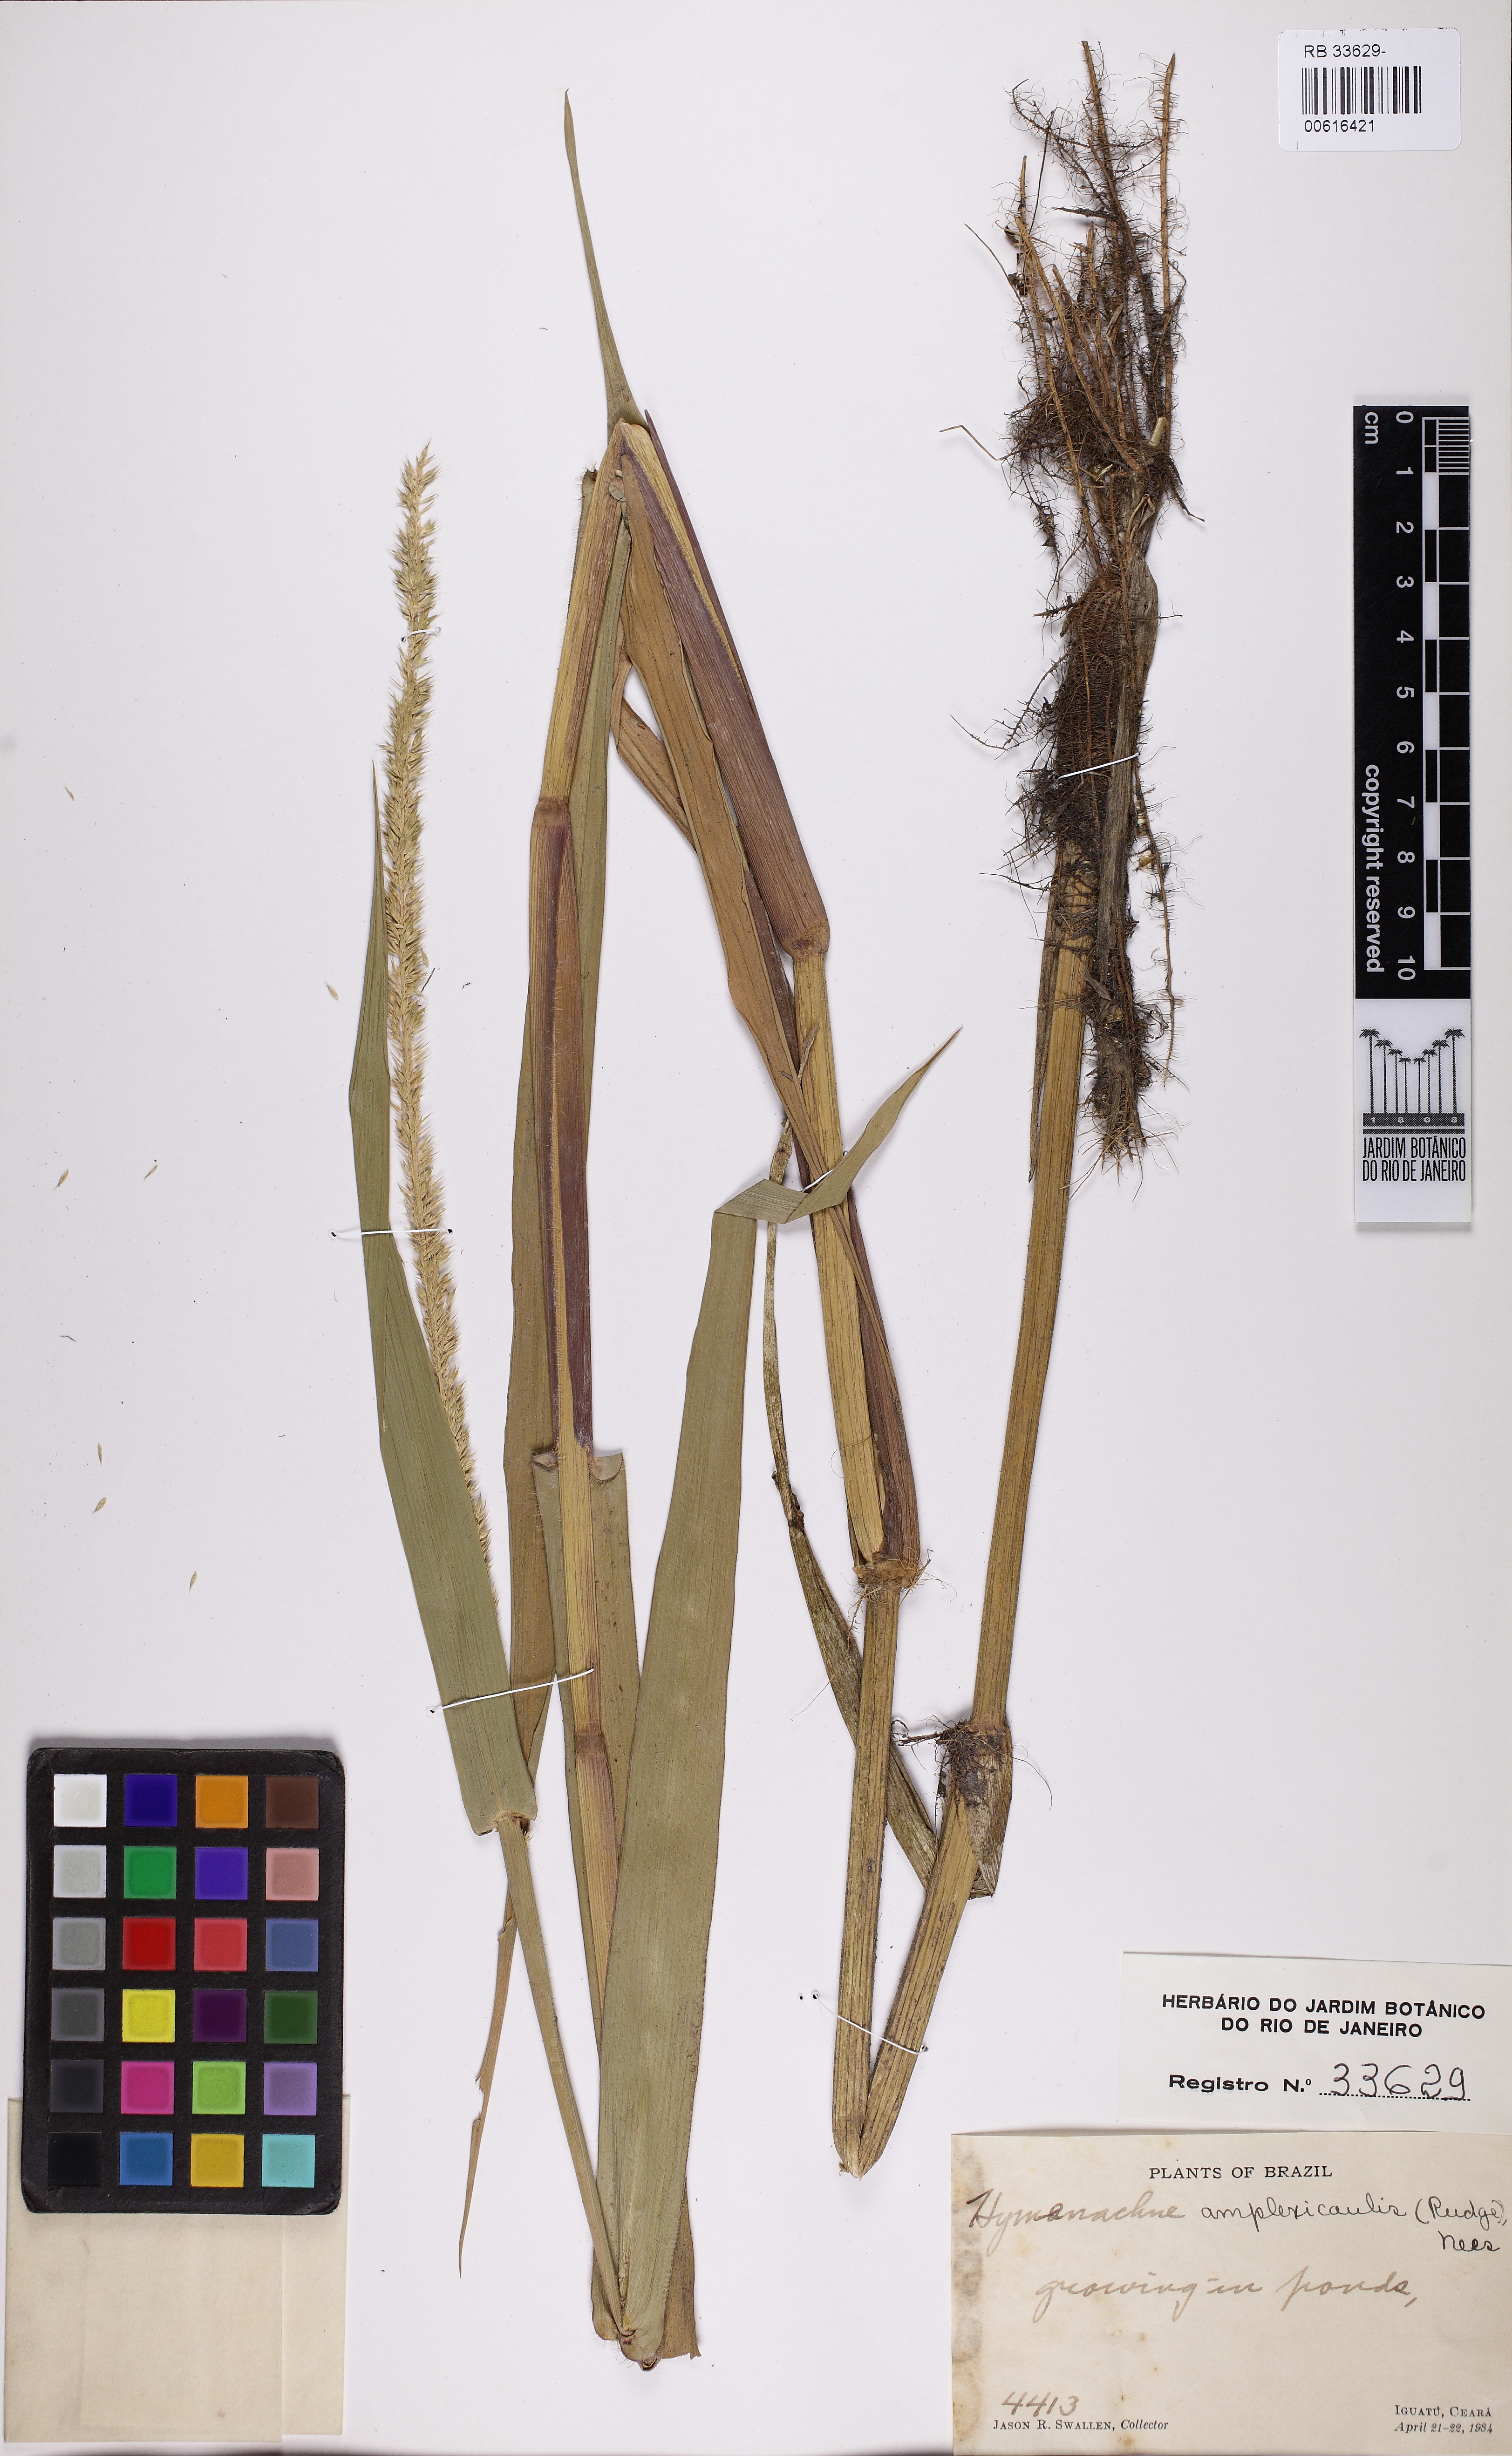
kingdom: Plantae
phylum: Tracheophyta
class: Liliopsida
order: Poales
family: Poaceae
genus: Hymenachne
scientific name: Hymenachne amplexicaulis
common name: Olive hymenachne
